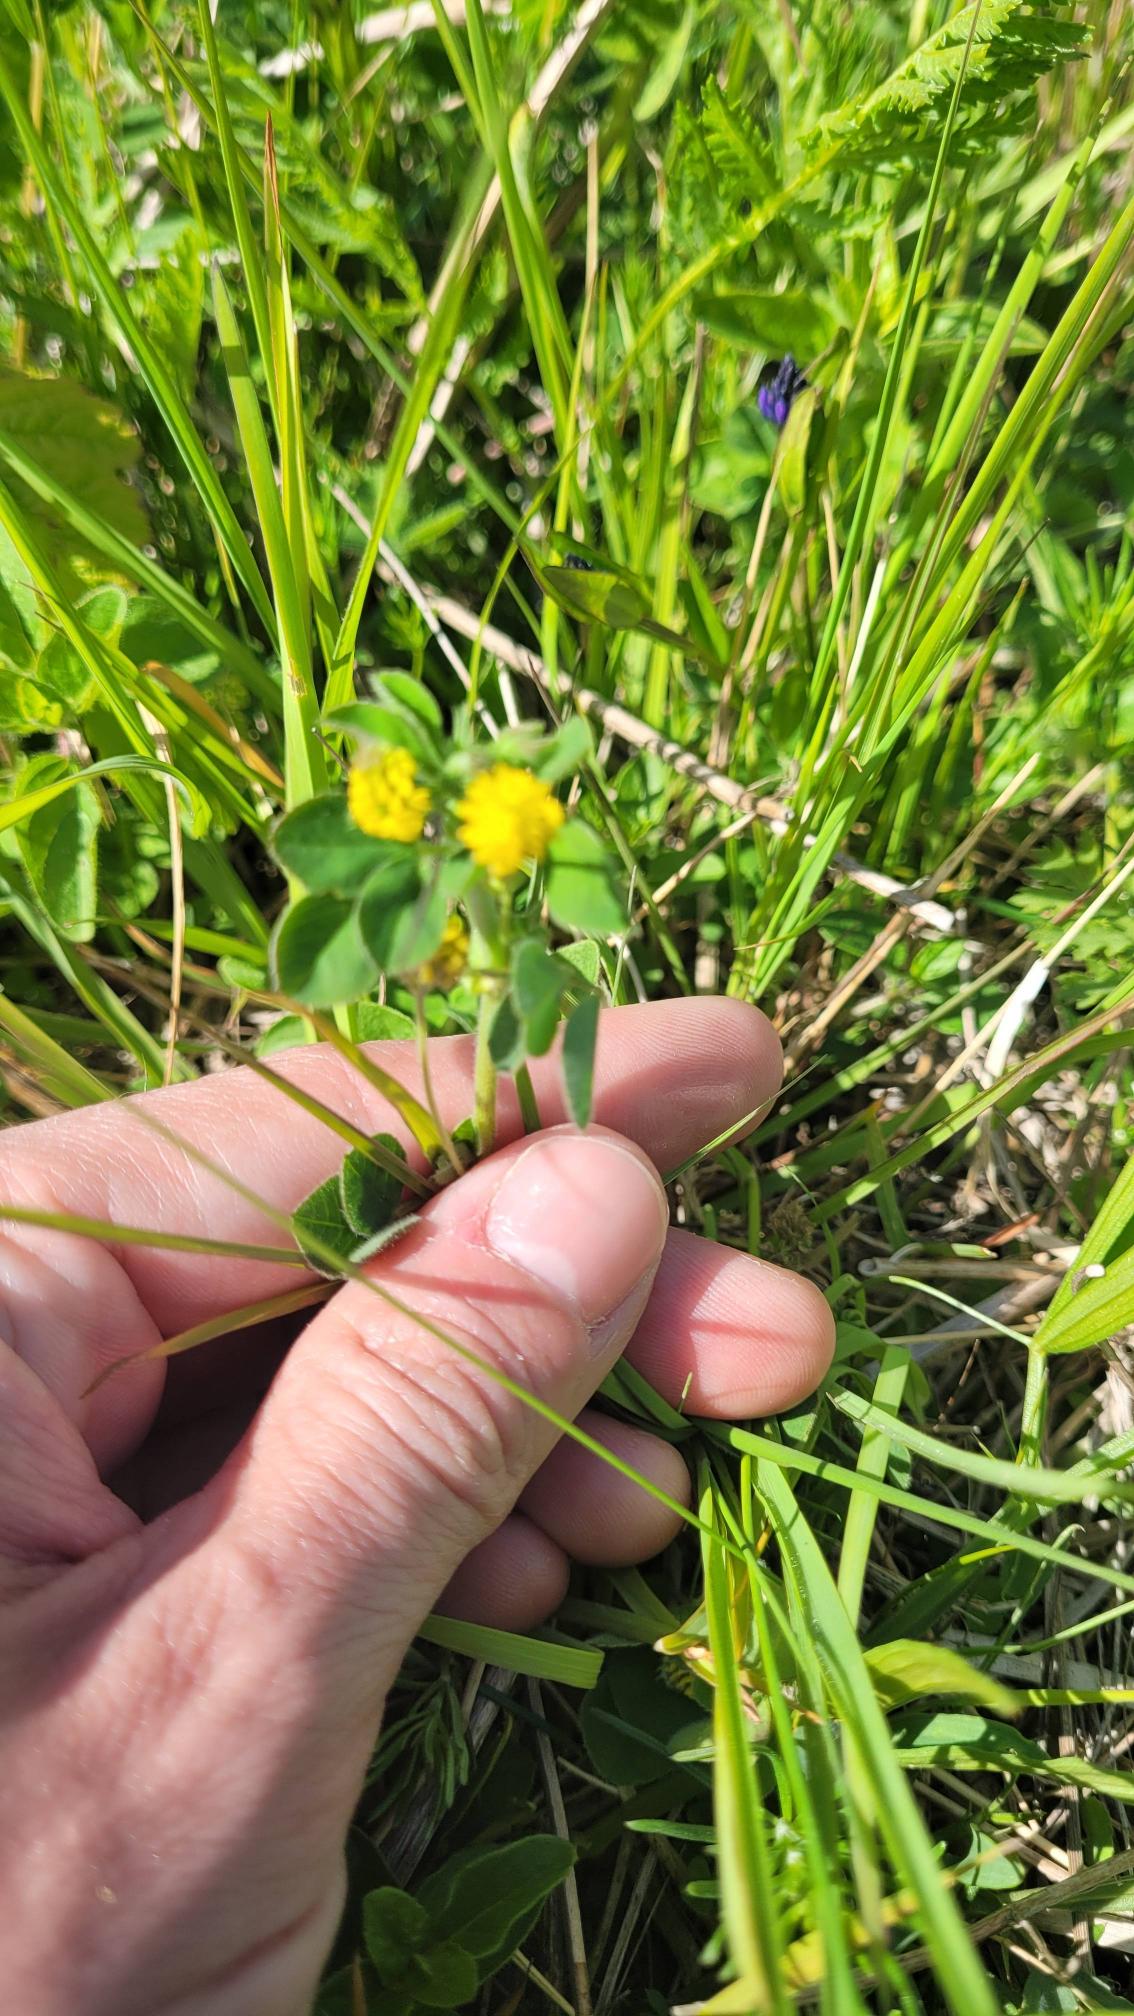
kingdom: Plantae
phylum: Tracheophyta
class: Magnoliopsida
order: Fabales
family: Fabaceae
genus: Medicago
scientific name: Medicago lupulina
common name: Humle-sneglebælg
